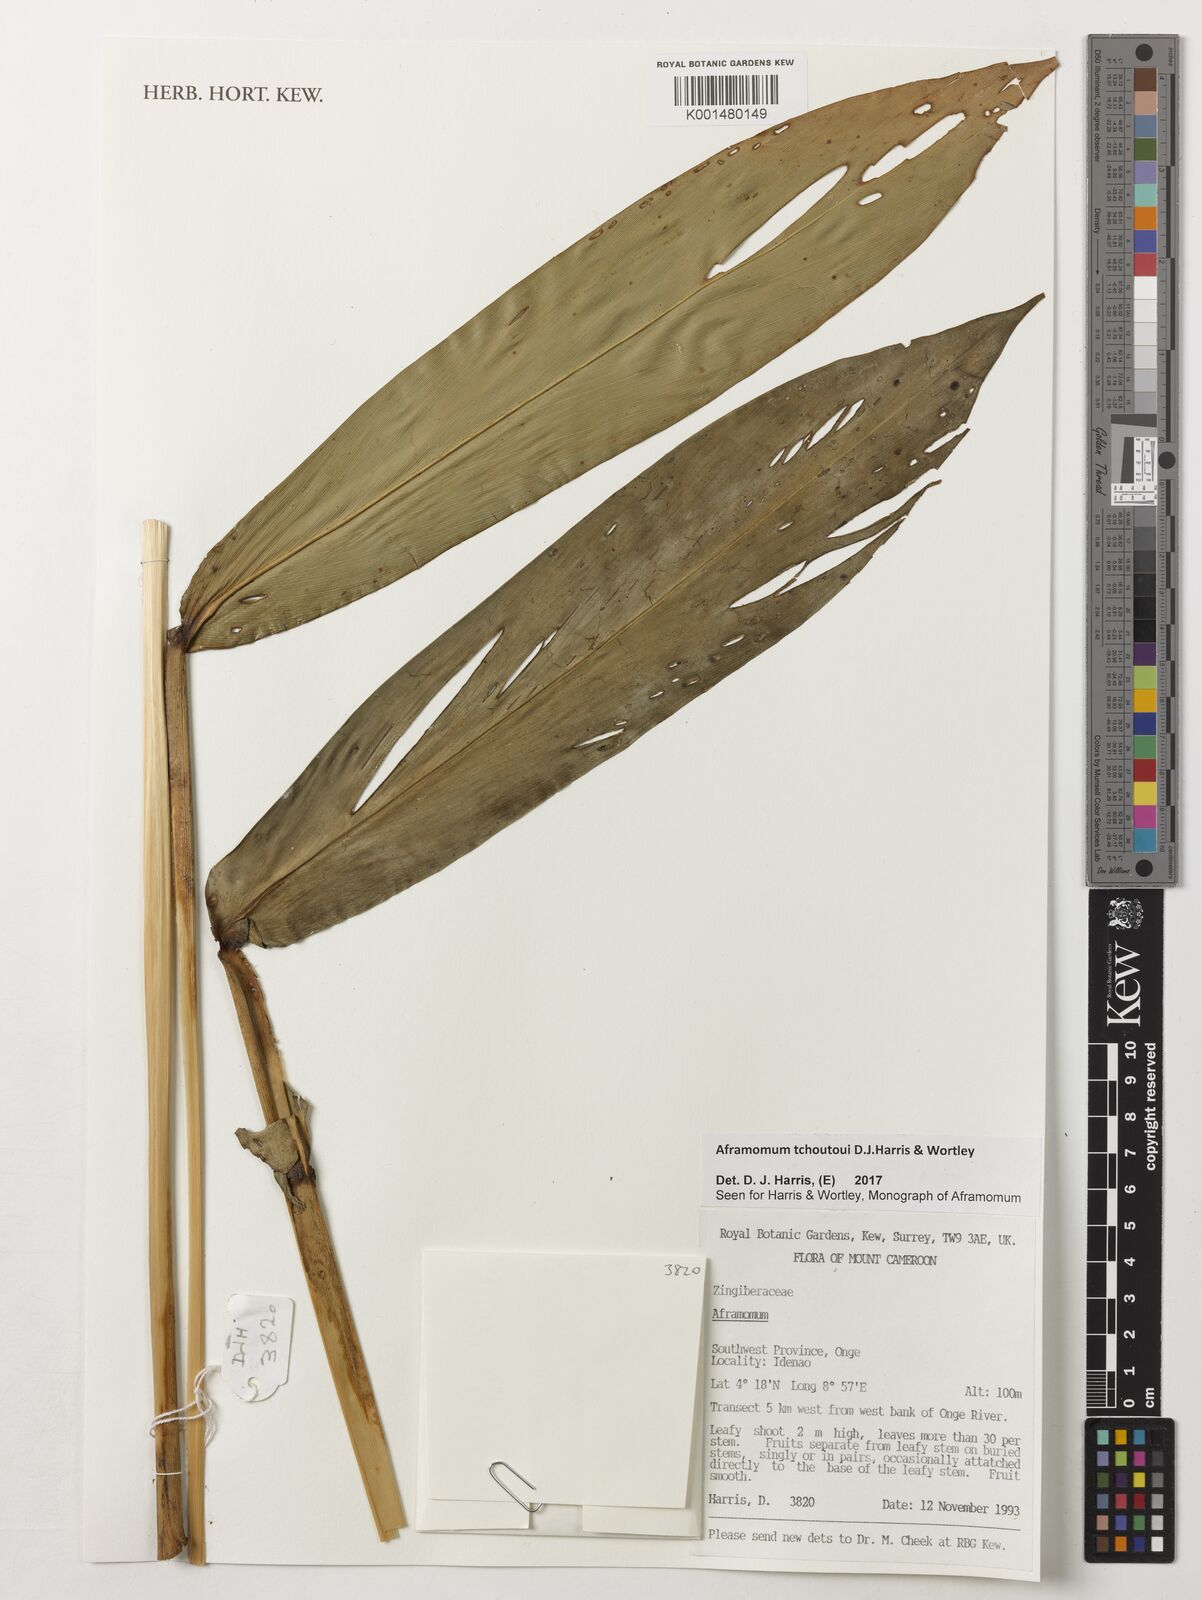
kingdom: Plantae
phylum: Tracheophyta
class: Liliopsida
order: Zingiberales
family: Zingiberaceae
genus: Aframomum
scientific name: Aframomum tchoutoui
